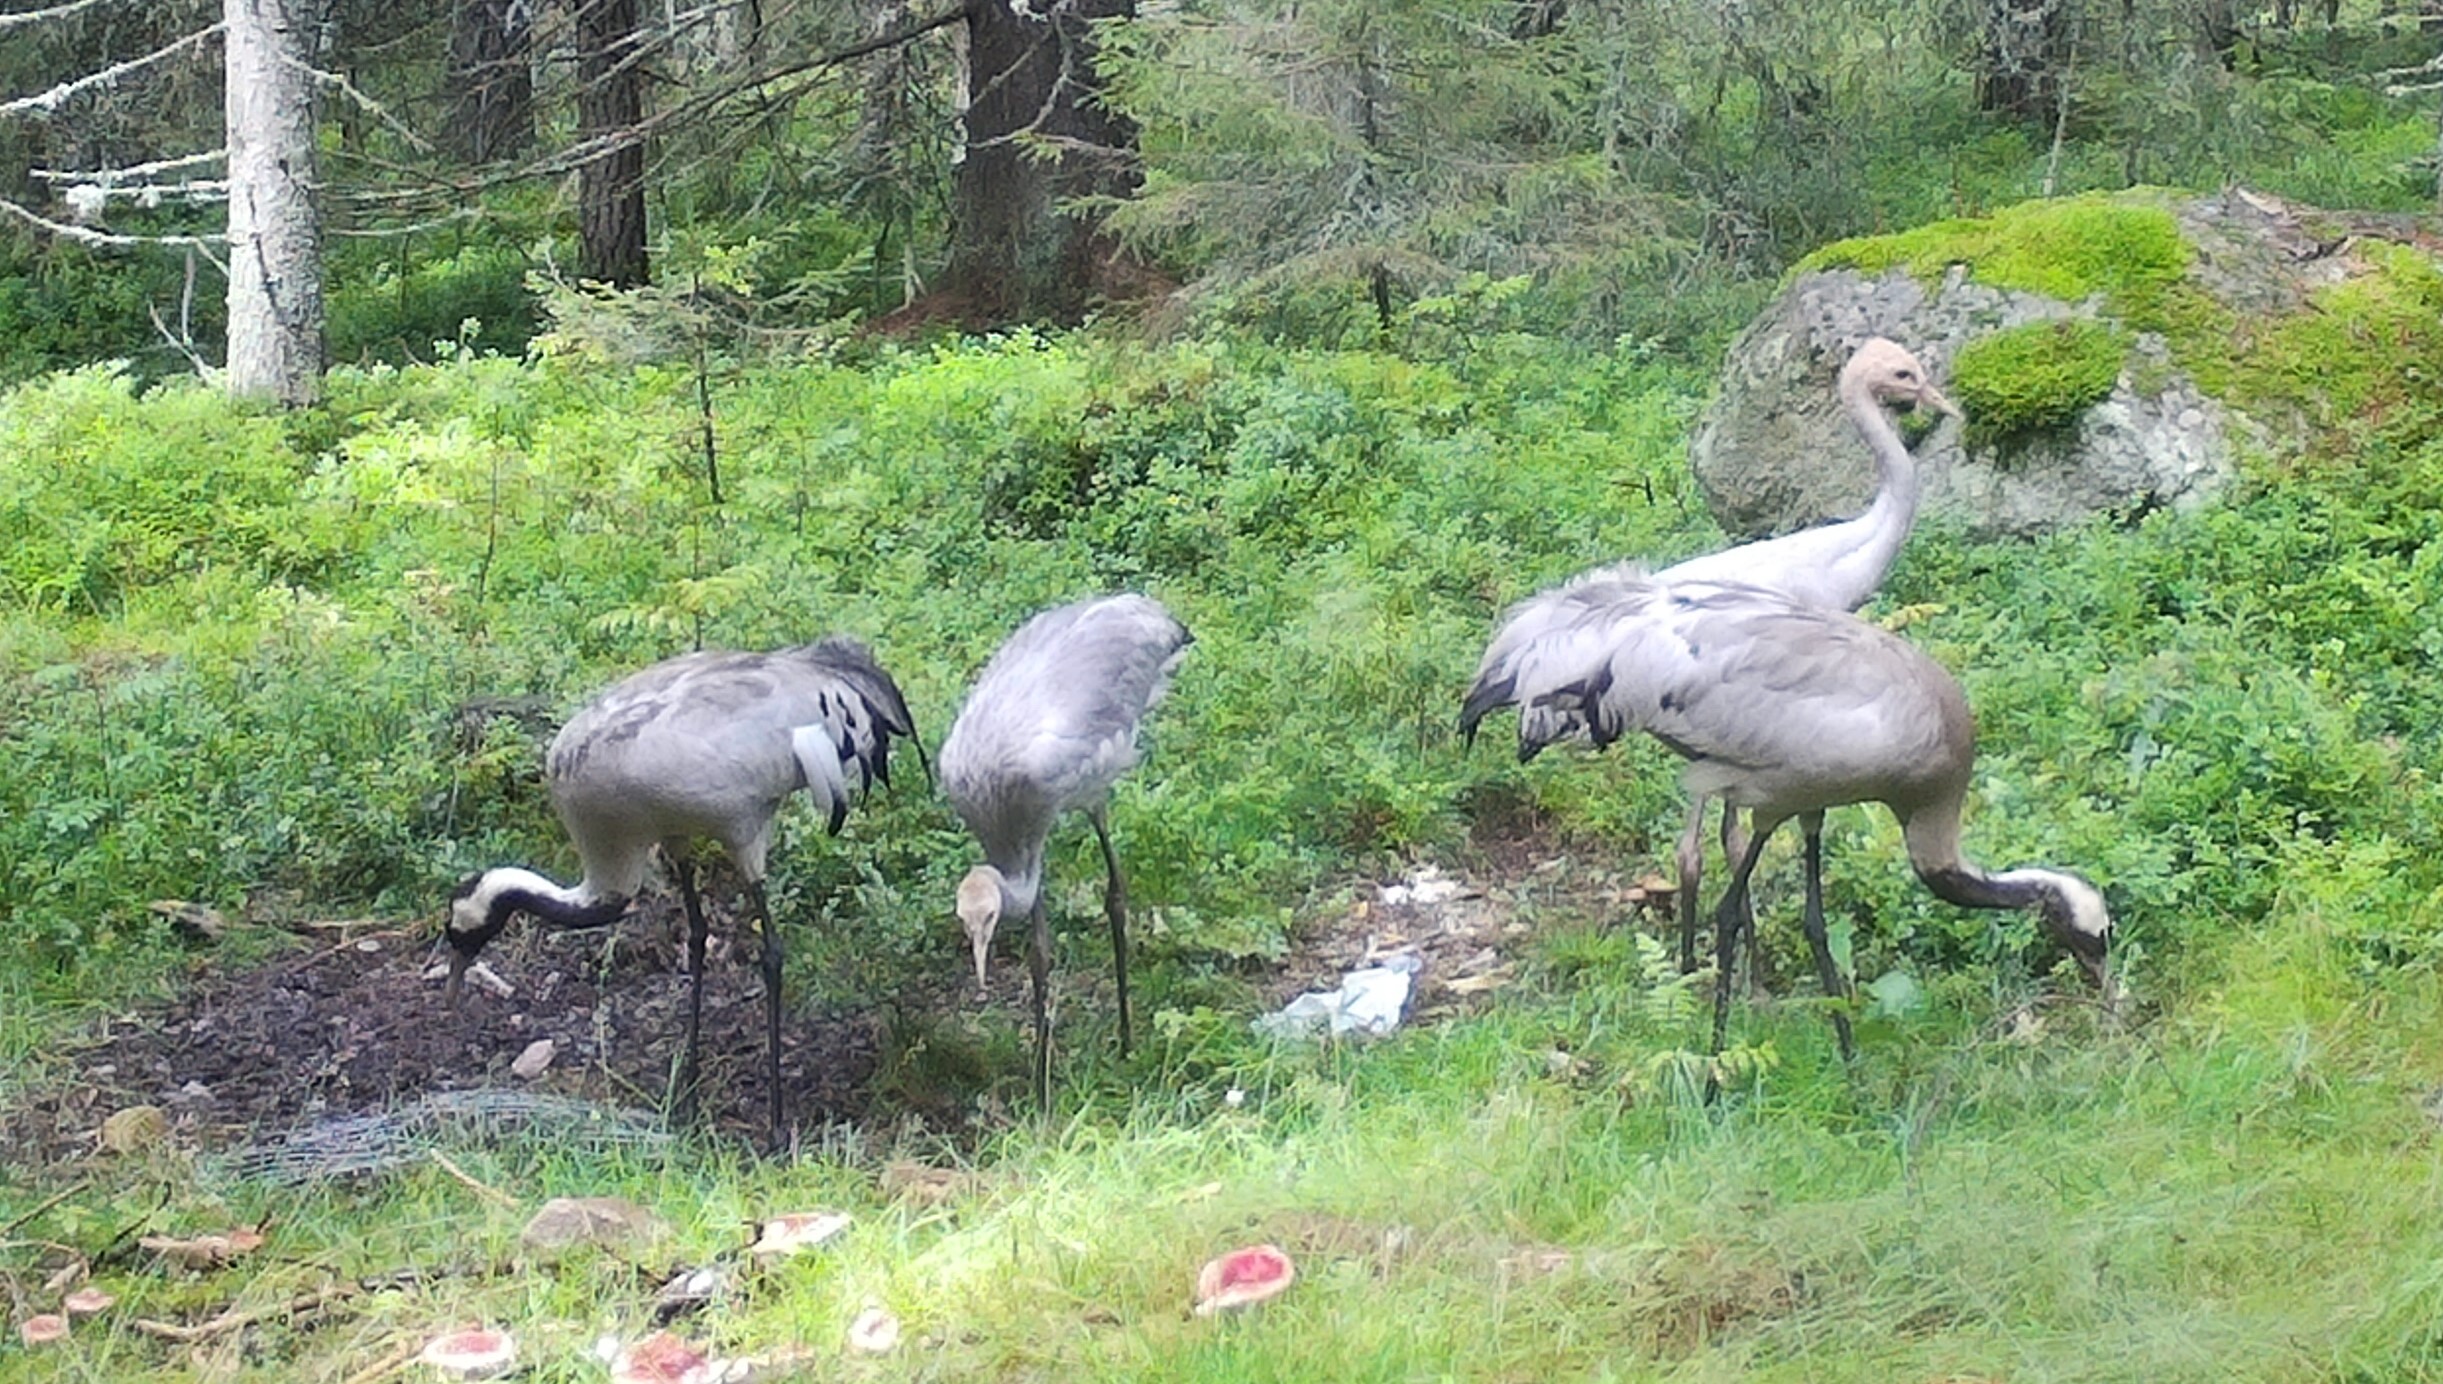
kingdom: Animalia
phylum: Chordata
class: Aves
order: Gruiformes
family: Gruidae
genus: Grus
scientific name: Grus grus
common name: Common crane
